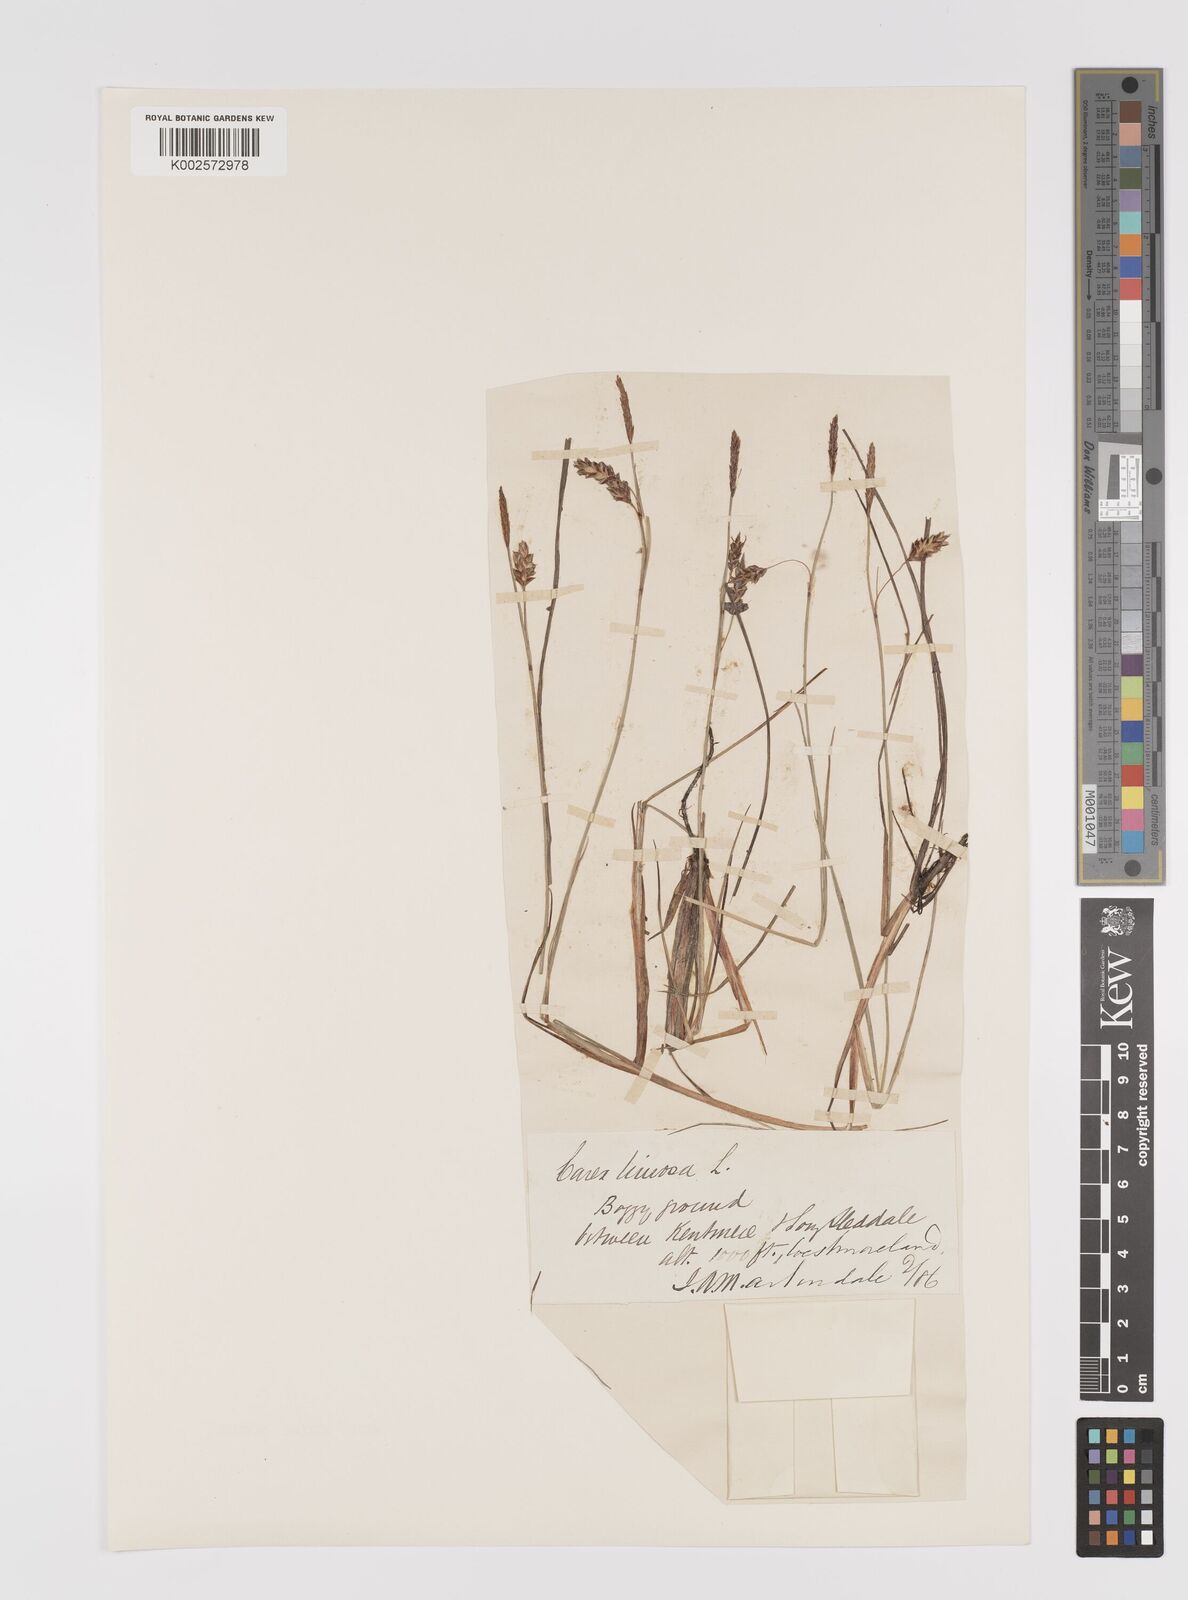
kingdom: Plantae
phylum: Tracheophyta
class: Liliopsida
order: Poales
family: Cyperaceae
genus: Carex
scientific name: Carex limosa
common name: Bog sedge
